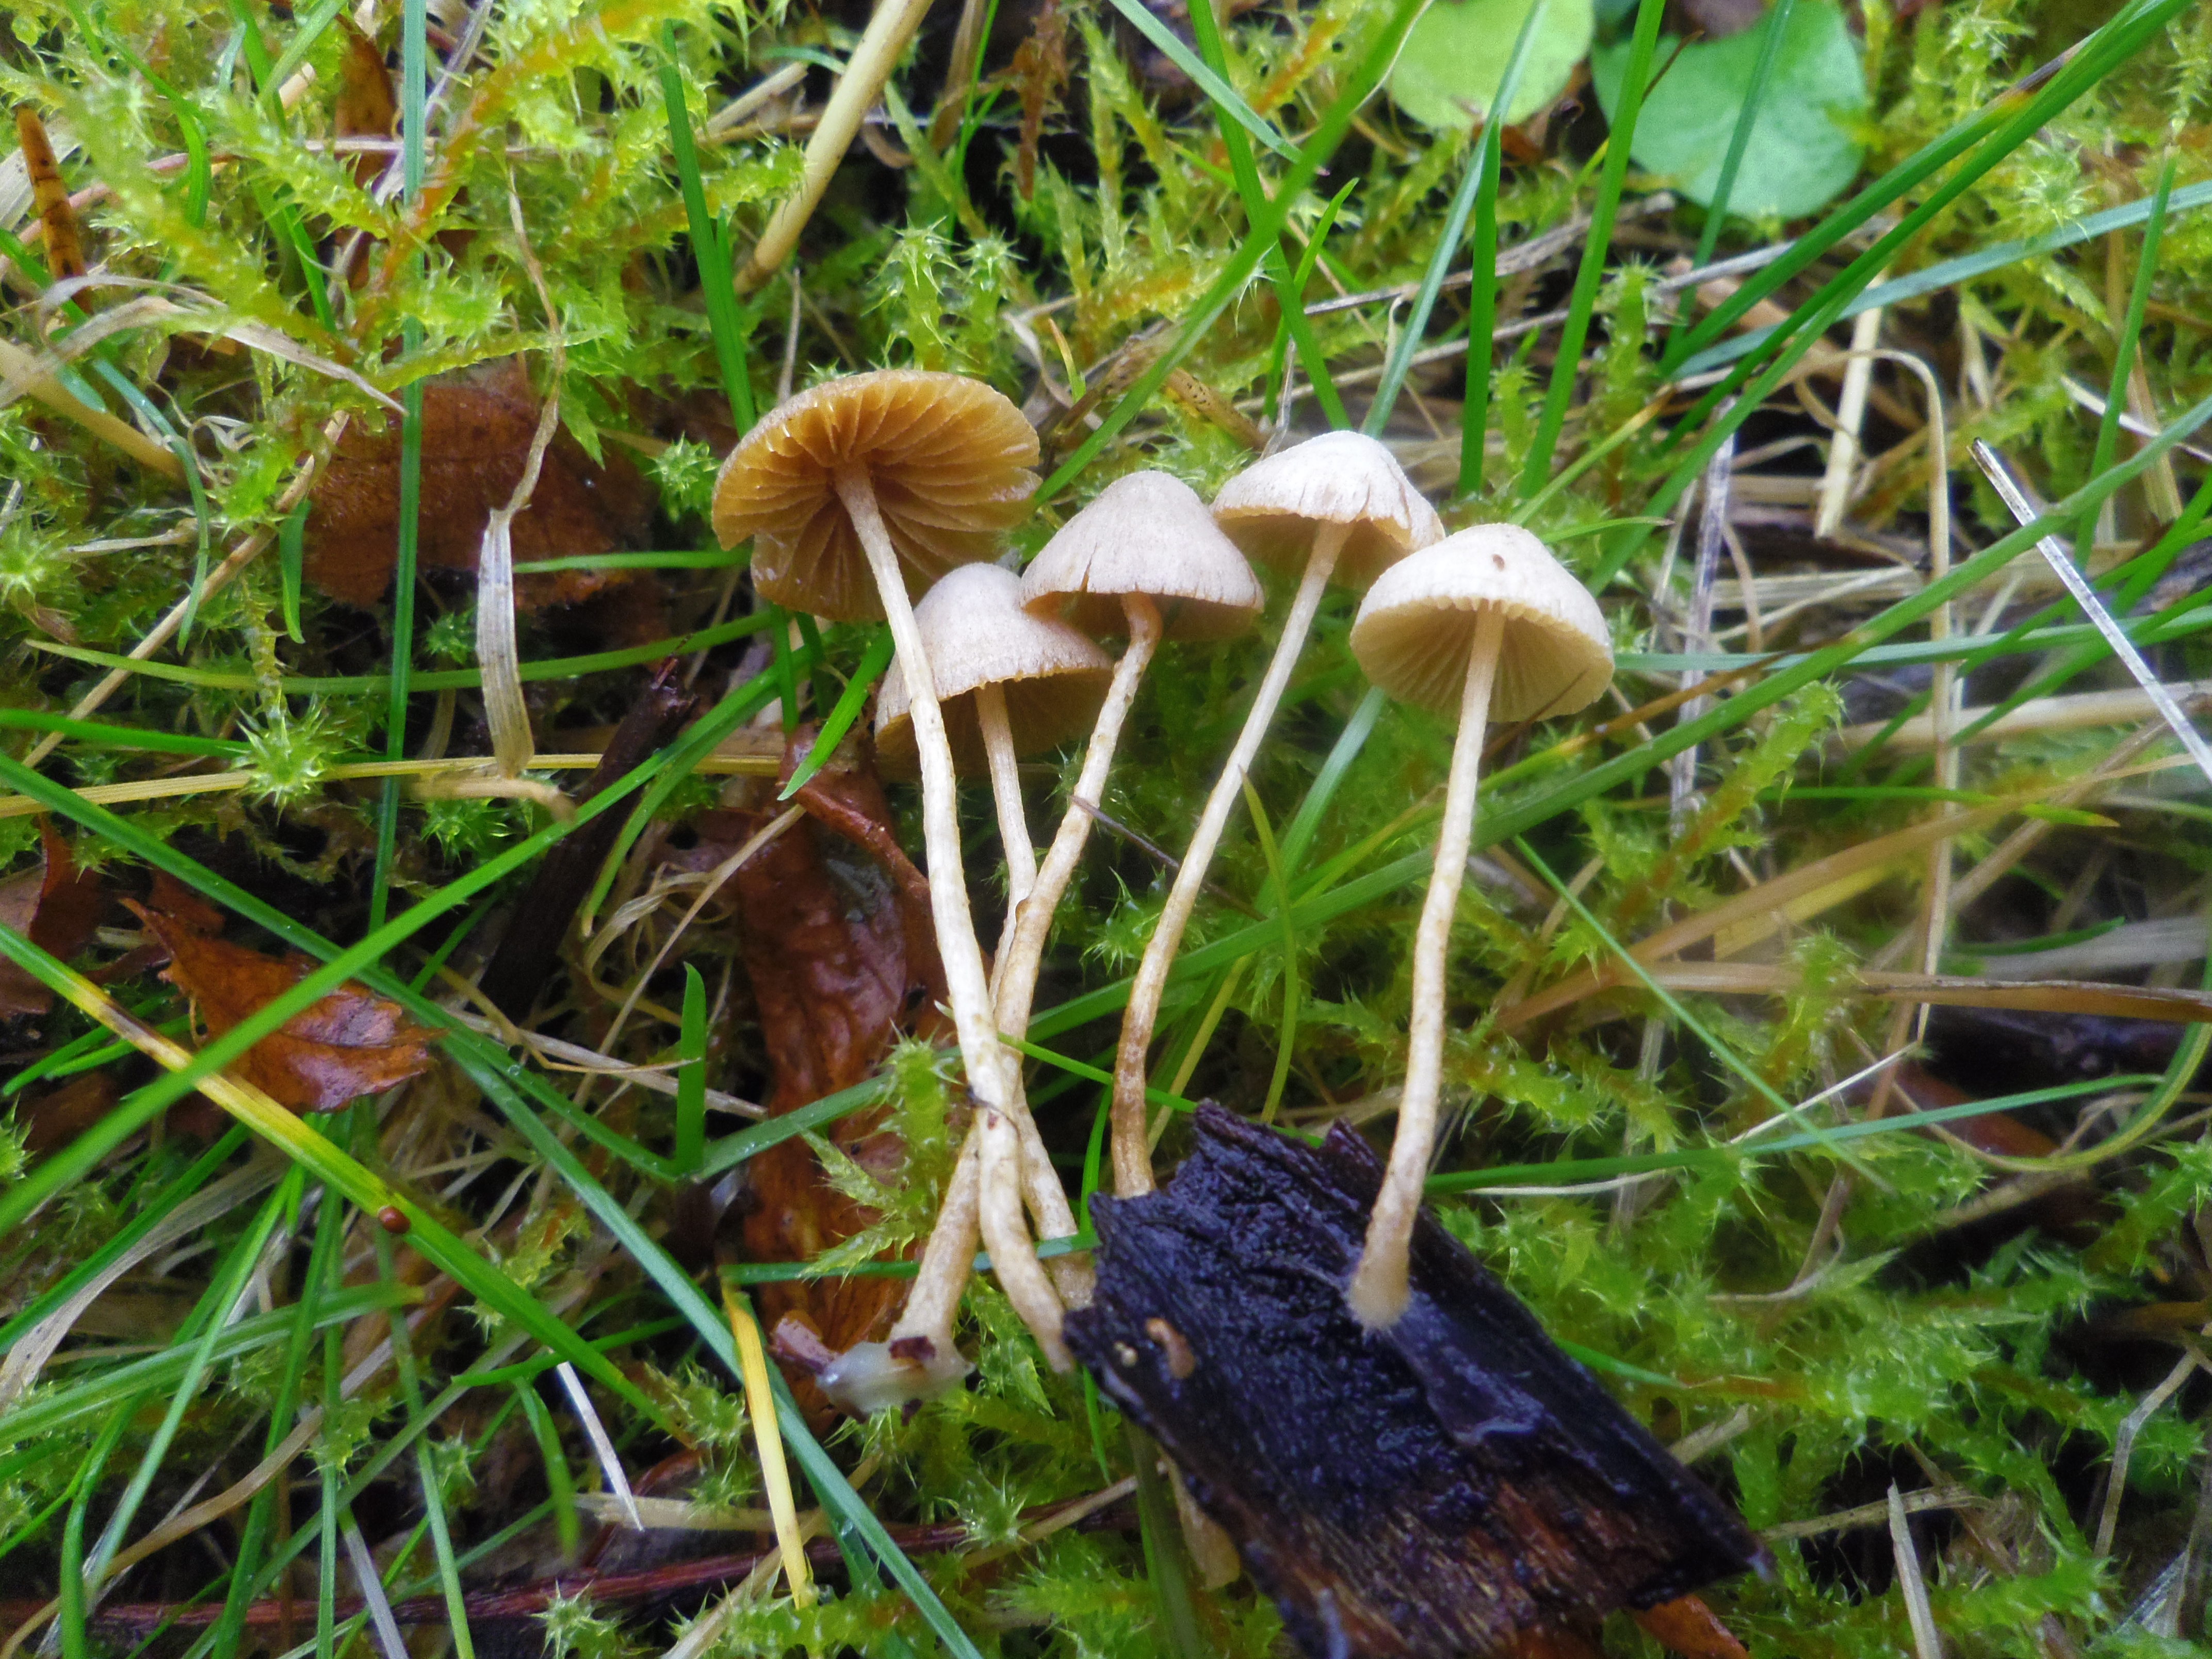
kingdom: Fungi
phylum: Basidiomycota
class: Agaricomycetes
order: Agaricales
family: Tubariaceae
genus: Flammulaster
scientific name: Flammulaster carpophilus
